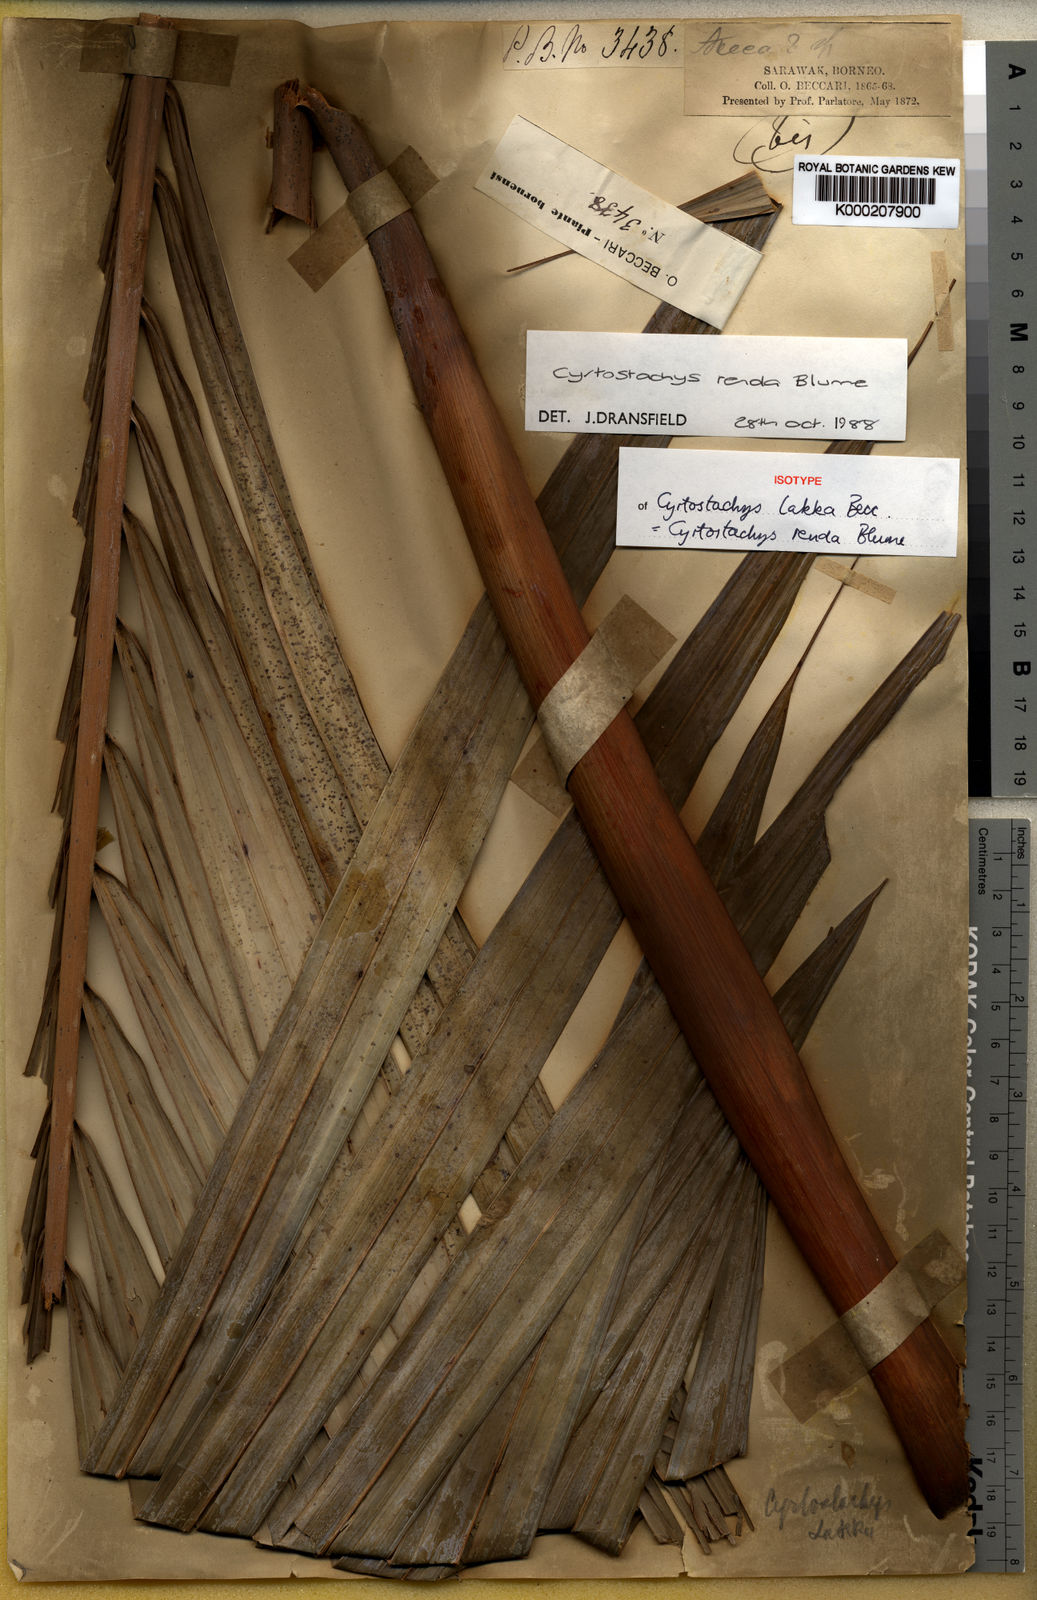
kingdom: Plantae
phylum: Tracheophyta
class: Liliopsida
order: Arecales
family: Arecaceae
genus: Cyrtostachys
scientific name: Cyrtostachys renda
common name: Lipstick palm
